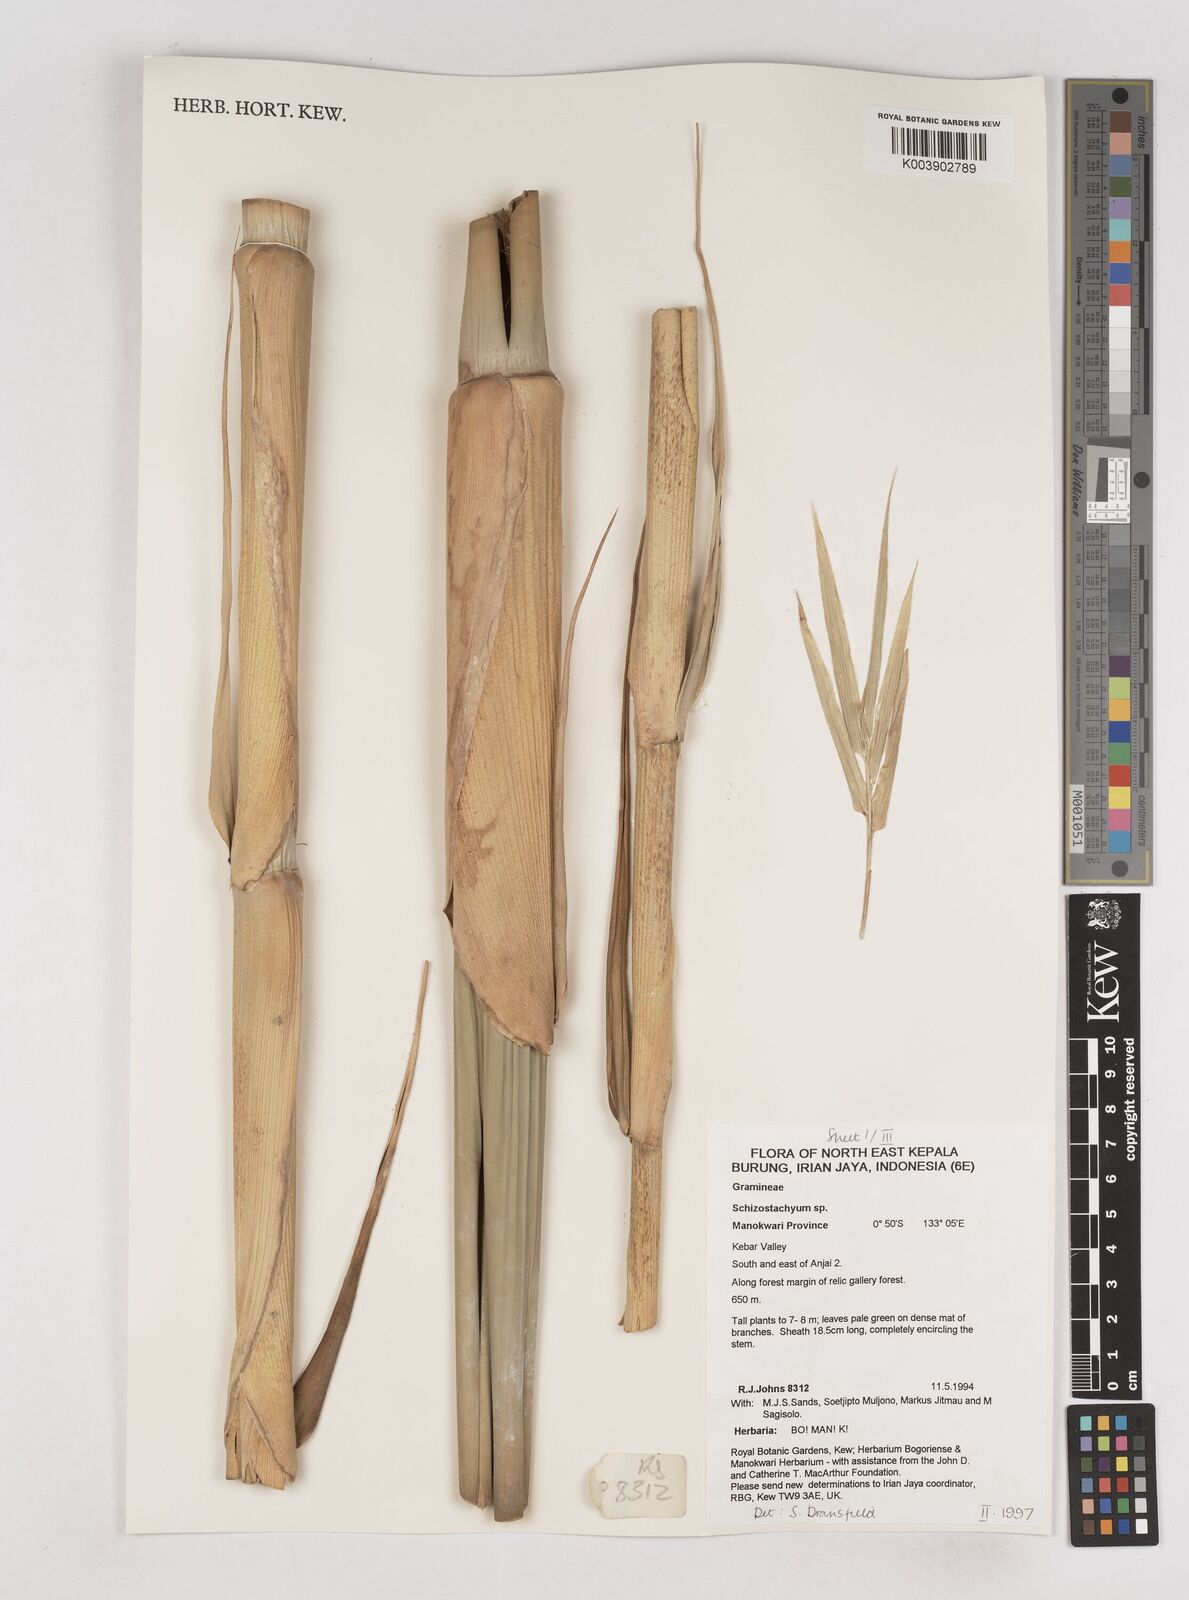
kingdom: Plantae
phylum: Tracheophyta
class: Liliopsida
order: Poales
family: Poaceae
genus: Schizostachyum
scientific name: Schizostachyum
